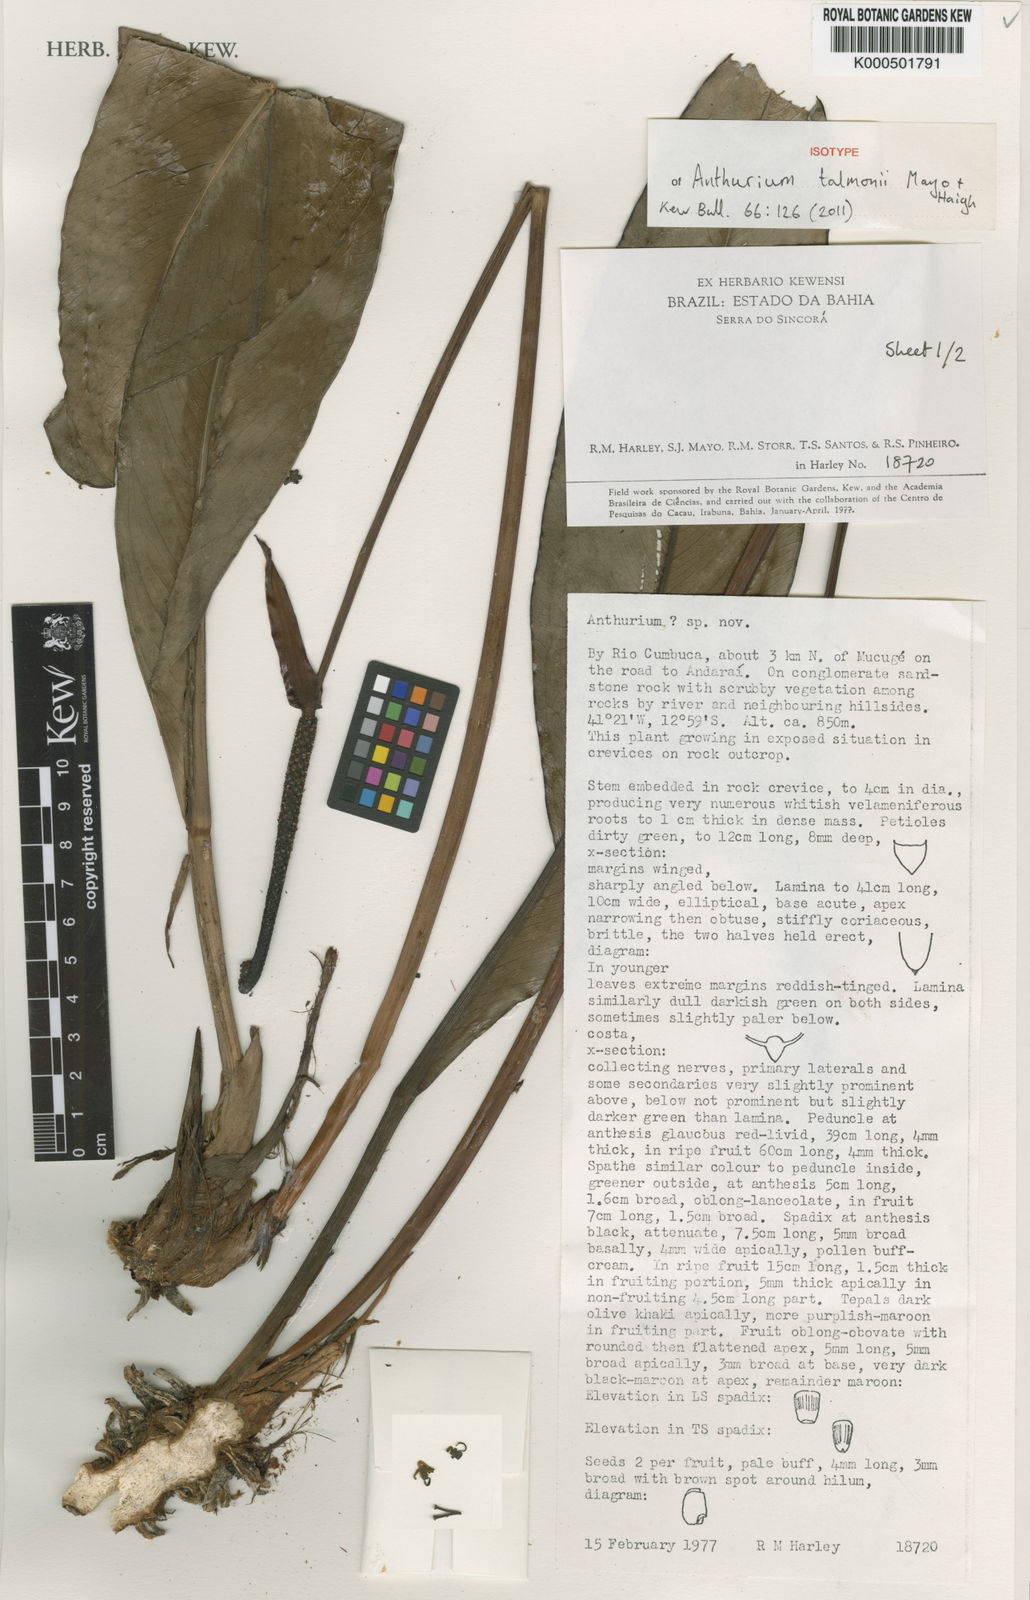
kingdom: Plantae
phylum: Tracheophyta
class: Liliopsida
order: Alismatales
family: Araceae
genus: Anthurium
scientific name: Anthurium talmonii
